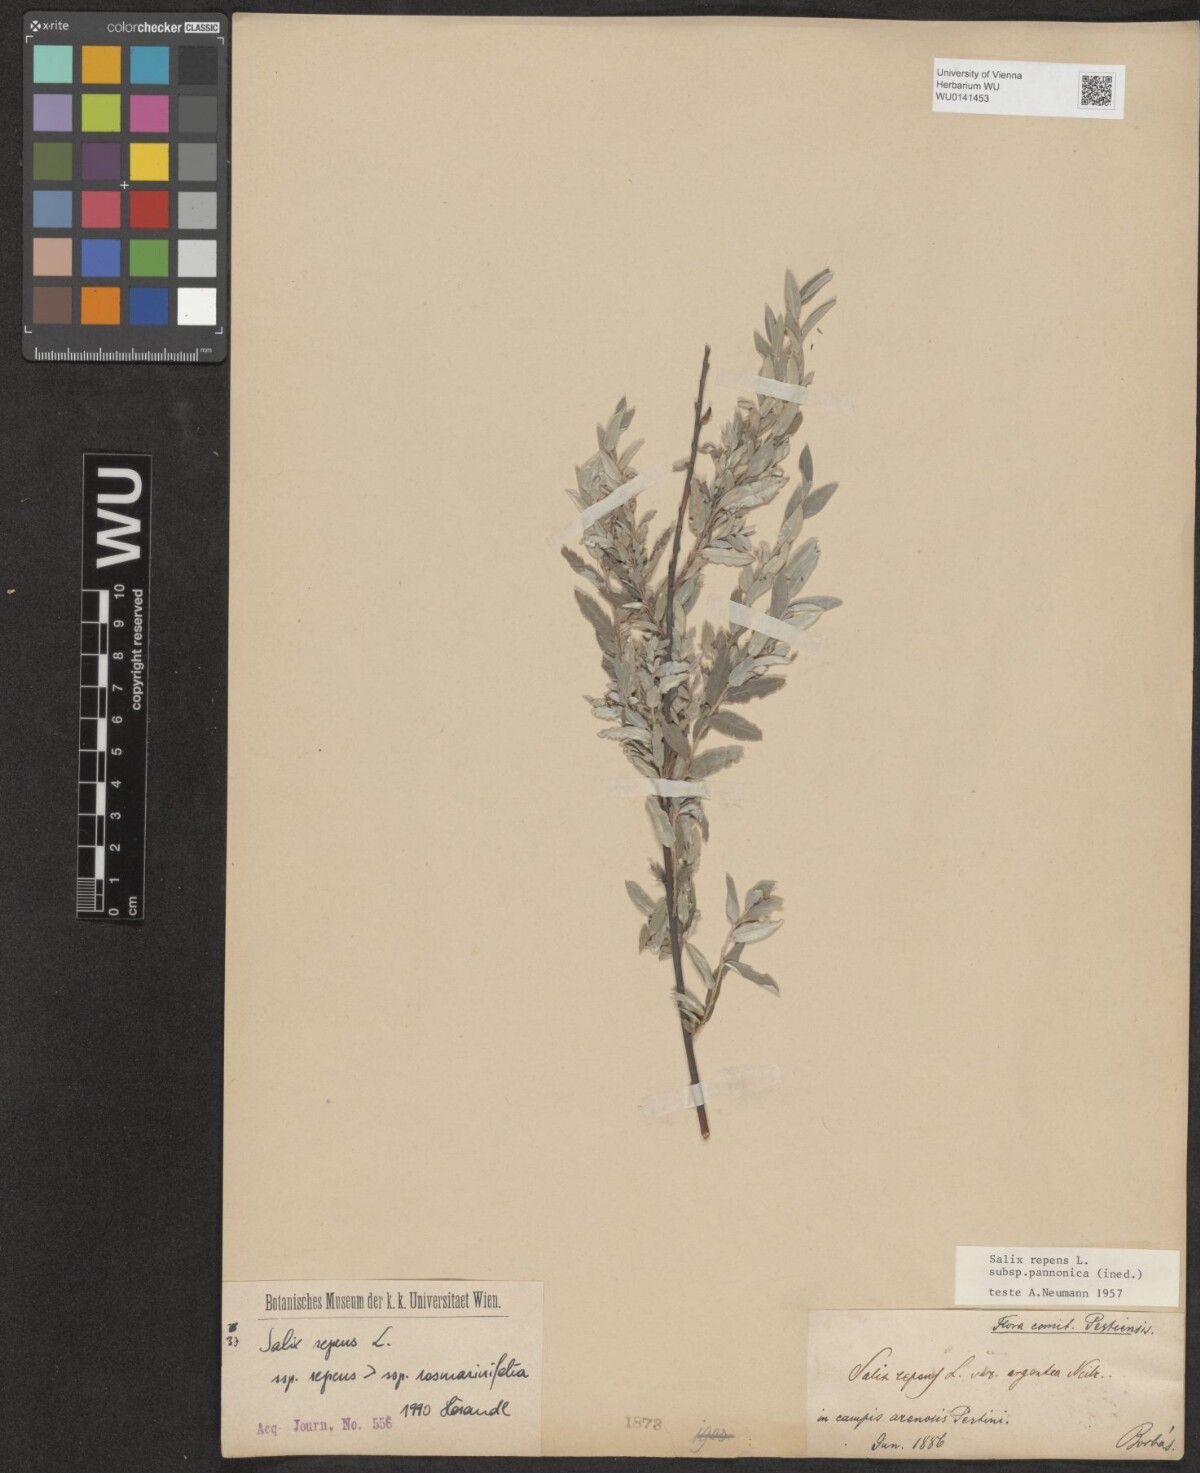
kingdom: Plantae
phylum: Tracheophyta
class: Magnoliopsida
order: Malpighiales
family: Salicaceae
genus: Salix
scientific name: Salix repens
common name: Creeping willow
